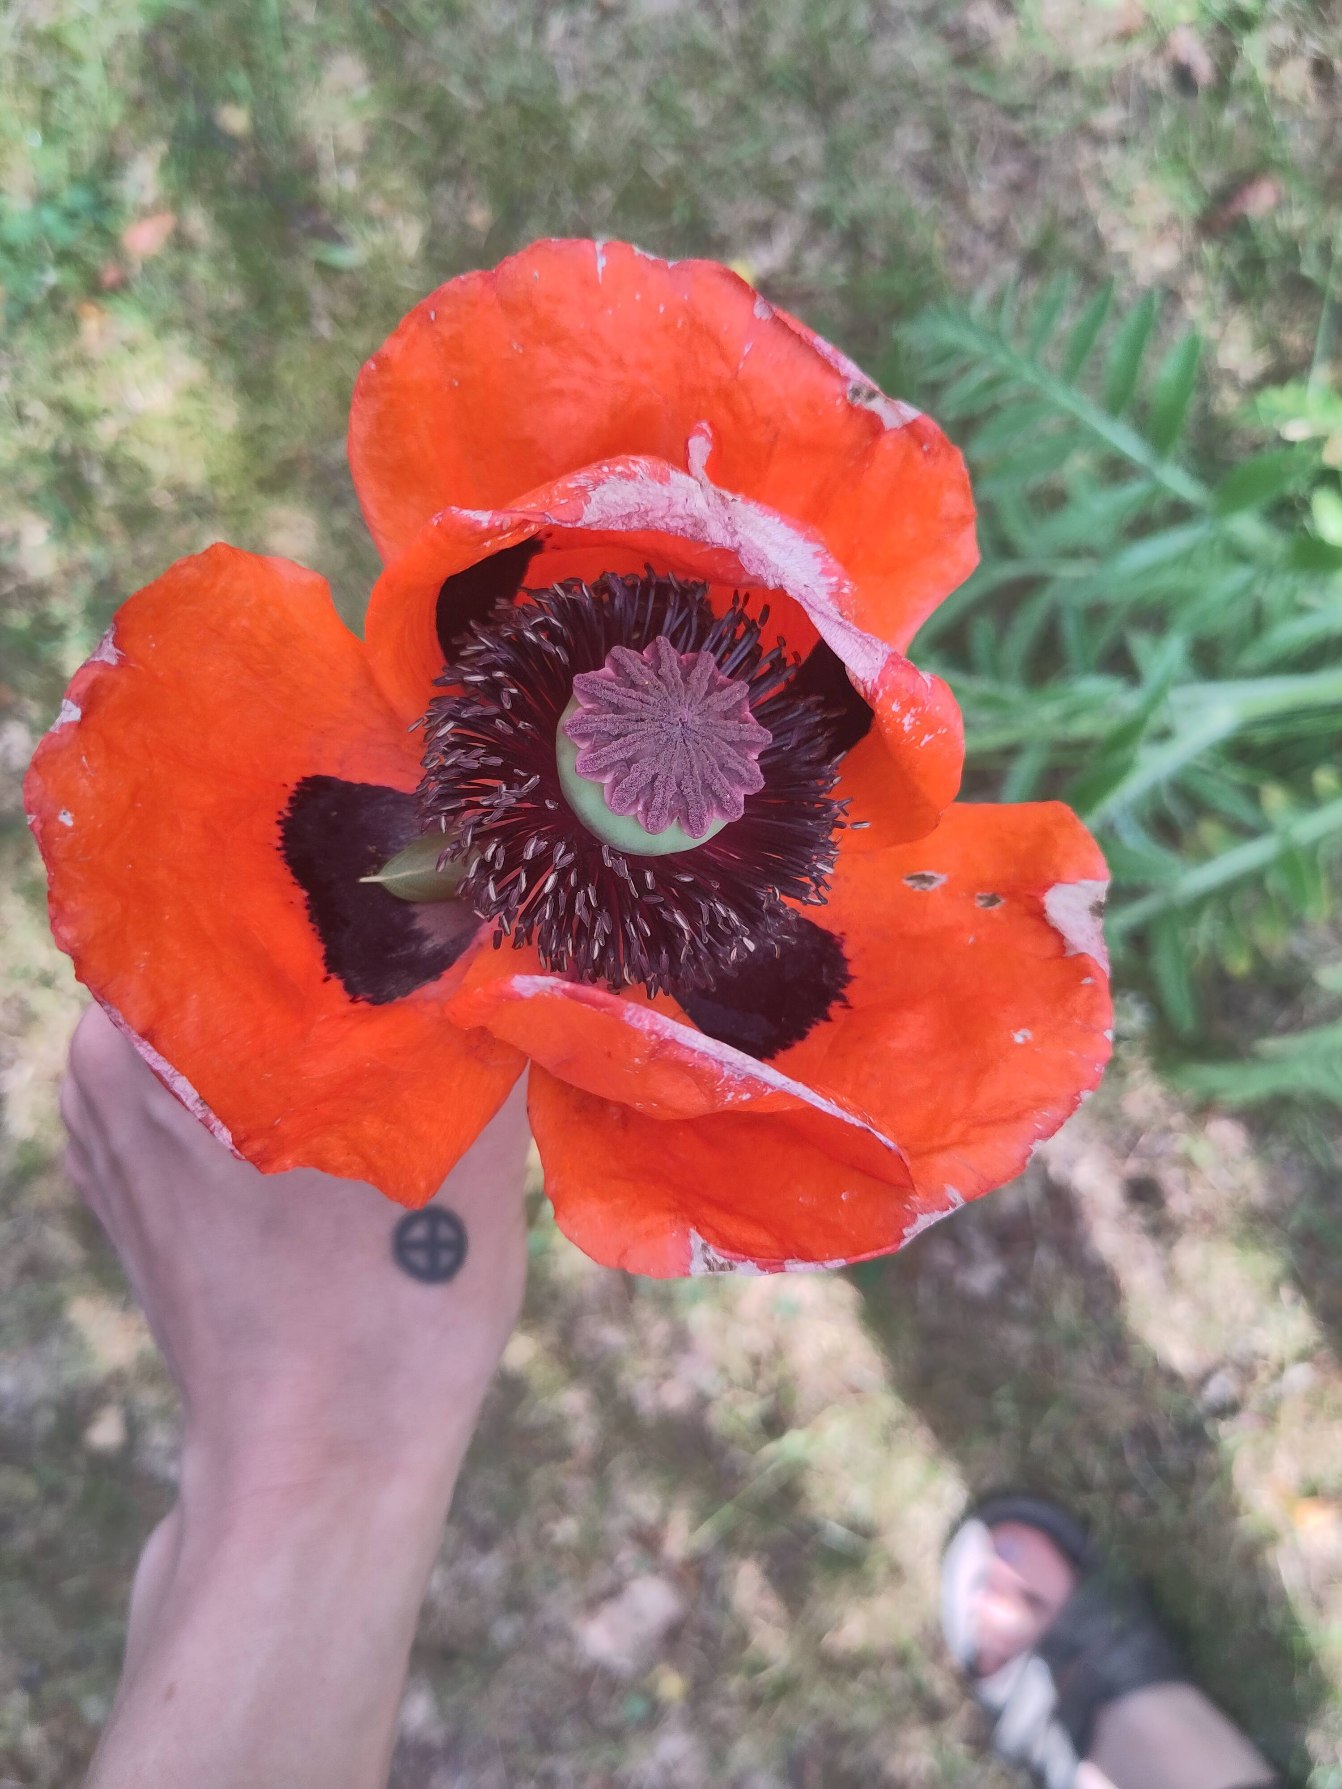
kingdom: Plantae
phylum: Tracheophyta
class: Magnoliopsida
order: Ranunculales
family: Papaveraceae
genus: Papaver
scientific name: Papaver setiferum
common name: Kæmpe-valmue
